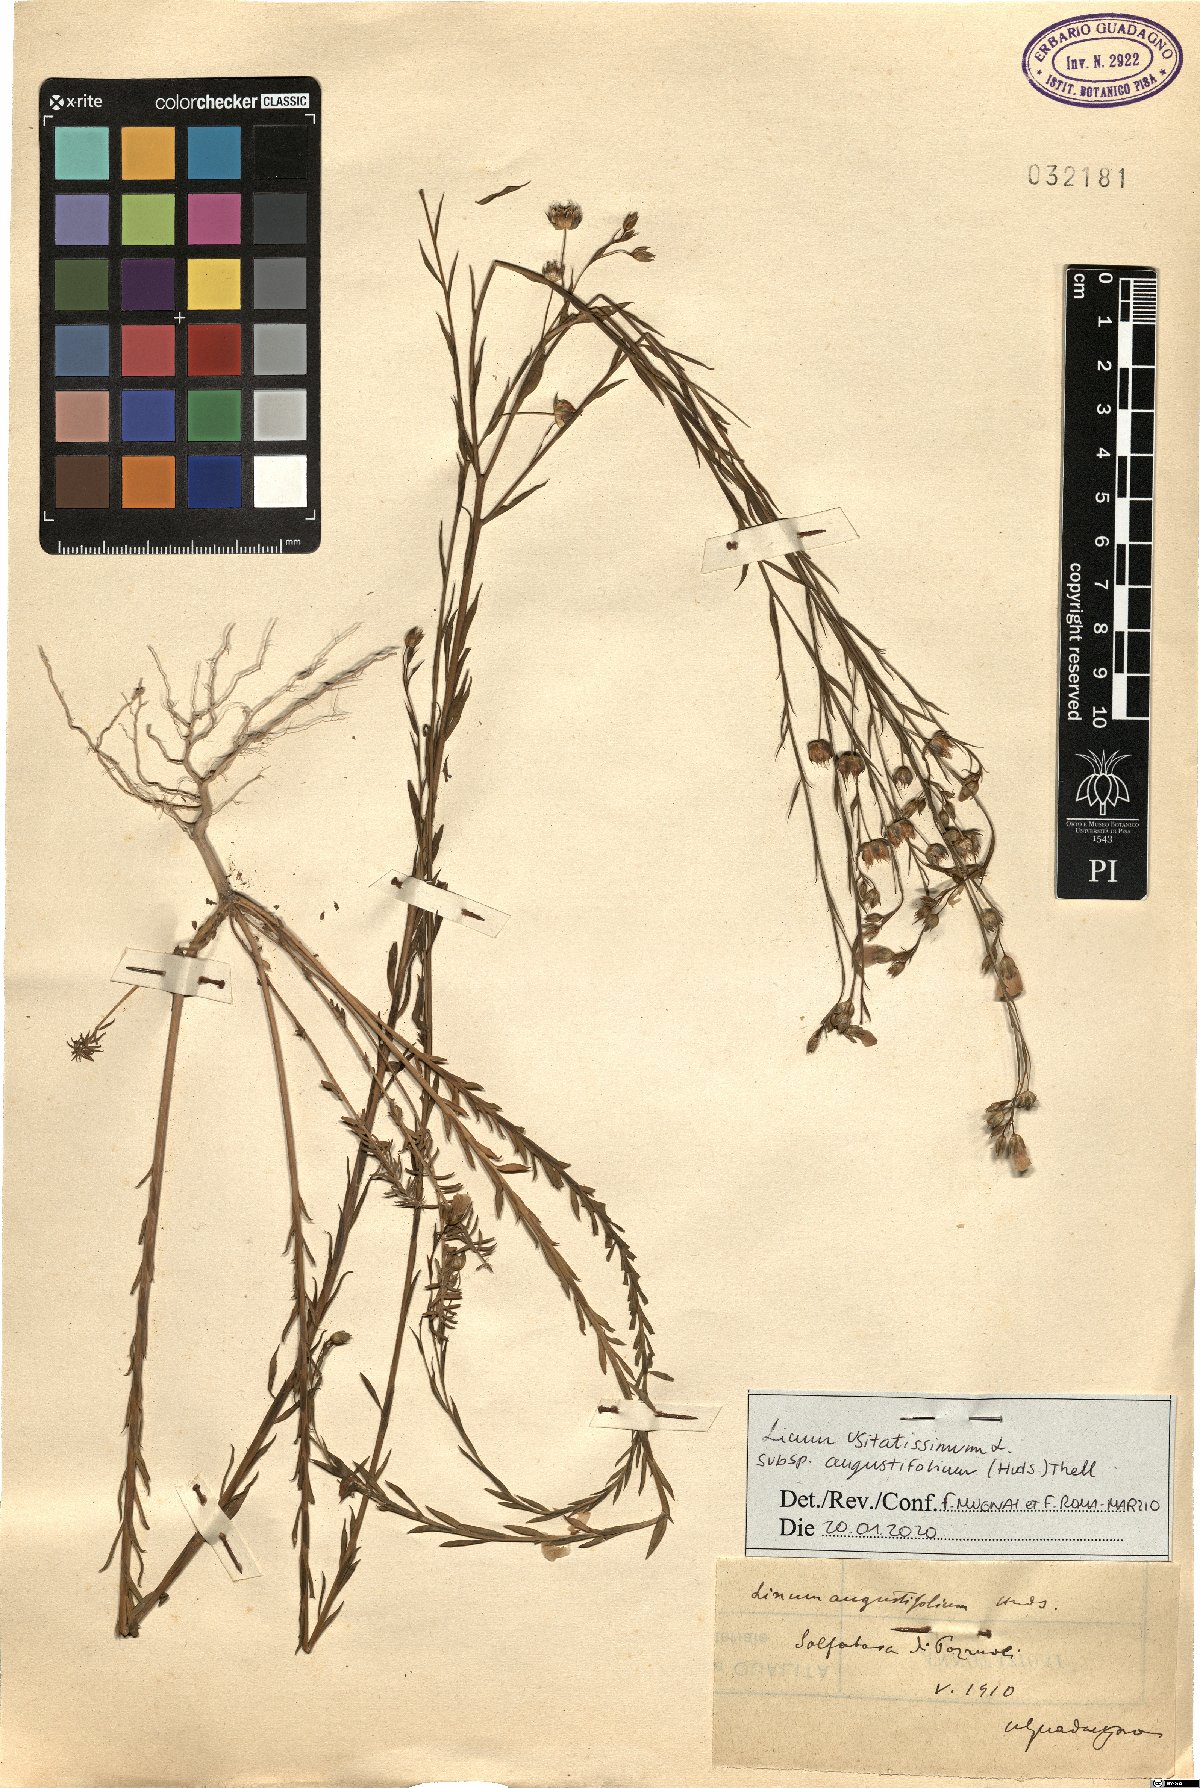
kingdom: Plantae
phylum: Tracheophyta
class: Magnoliopsida
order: Malpighiales
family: Linaceae
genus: Linum
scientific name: Linum bienne
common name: Pale flax
